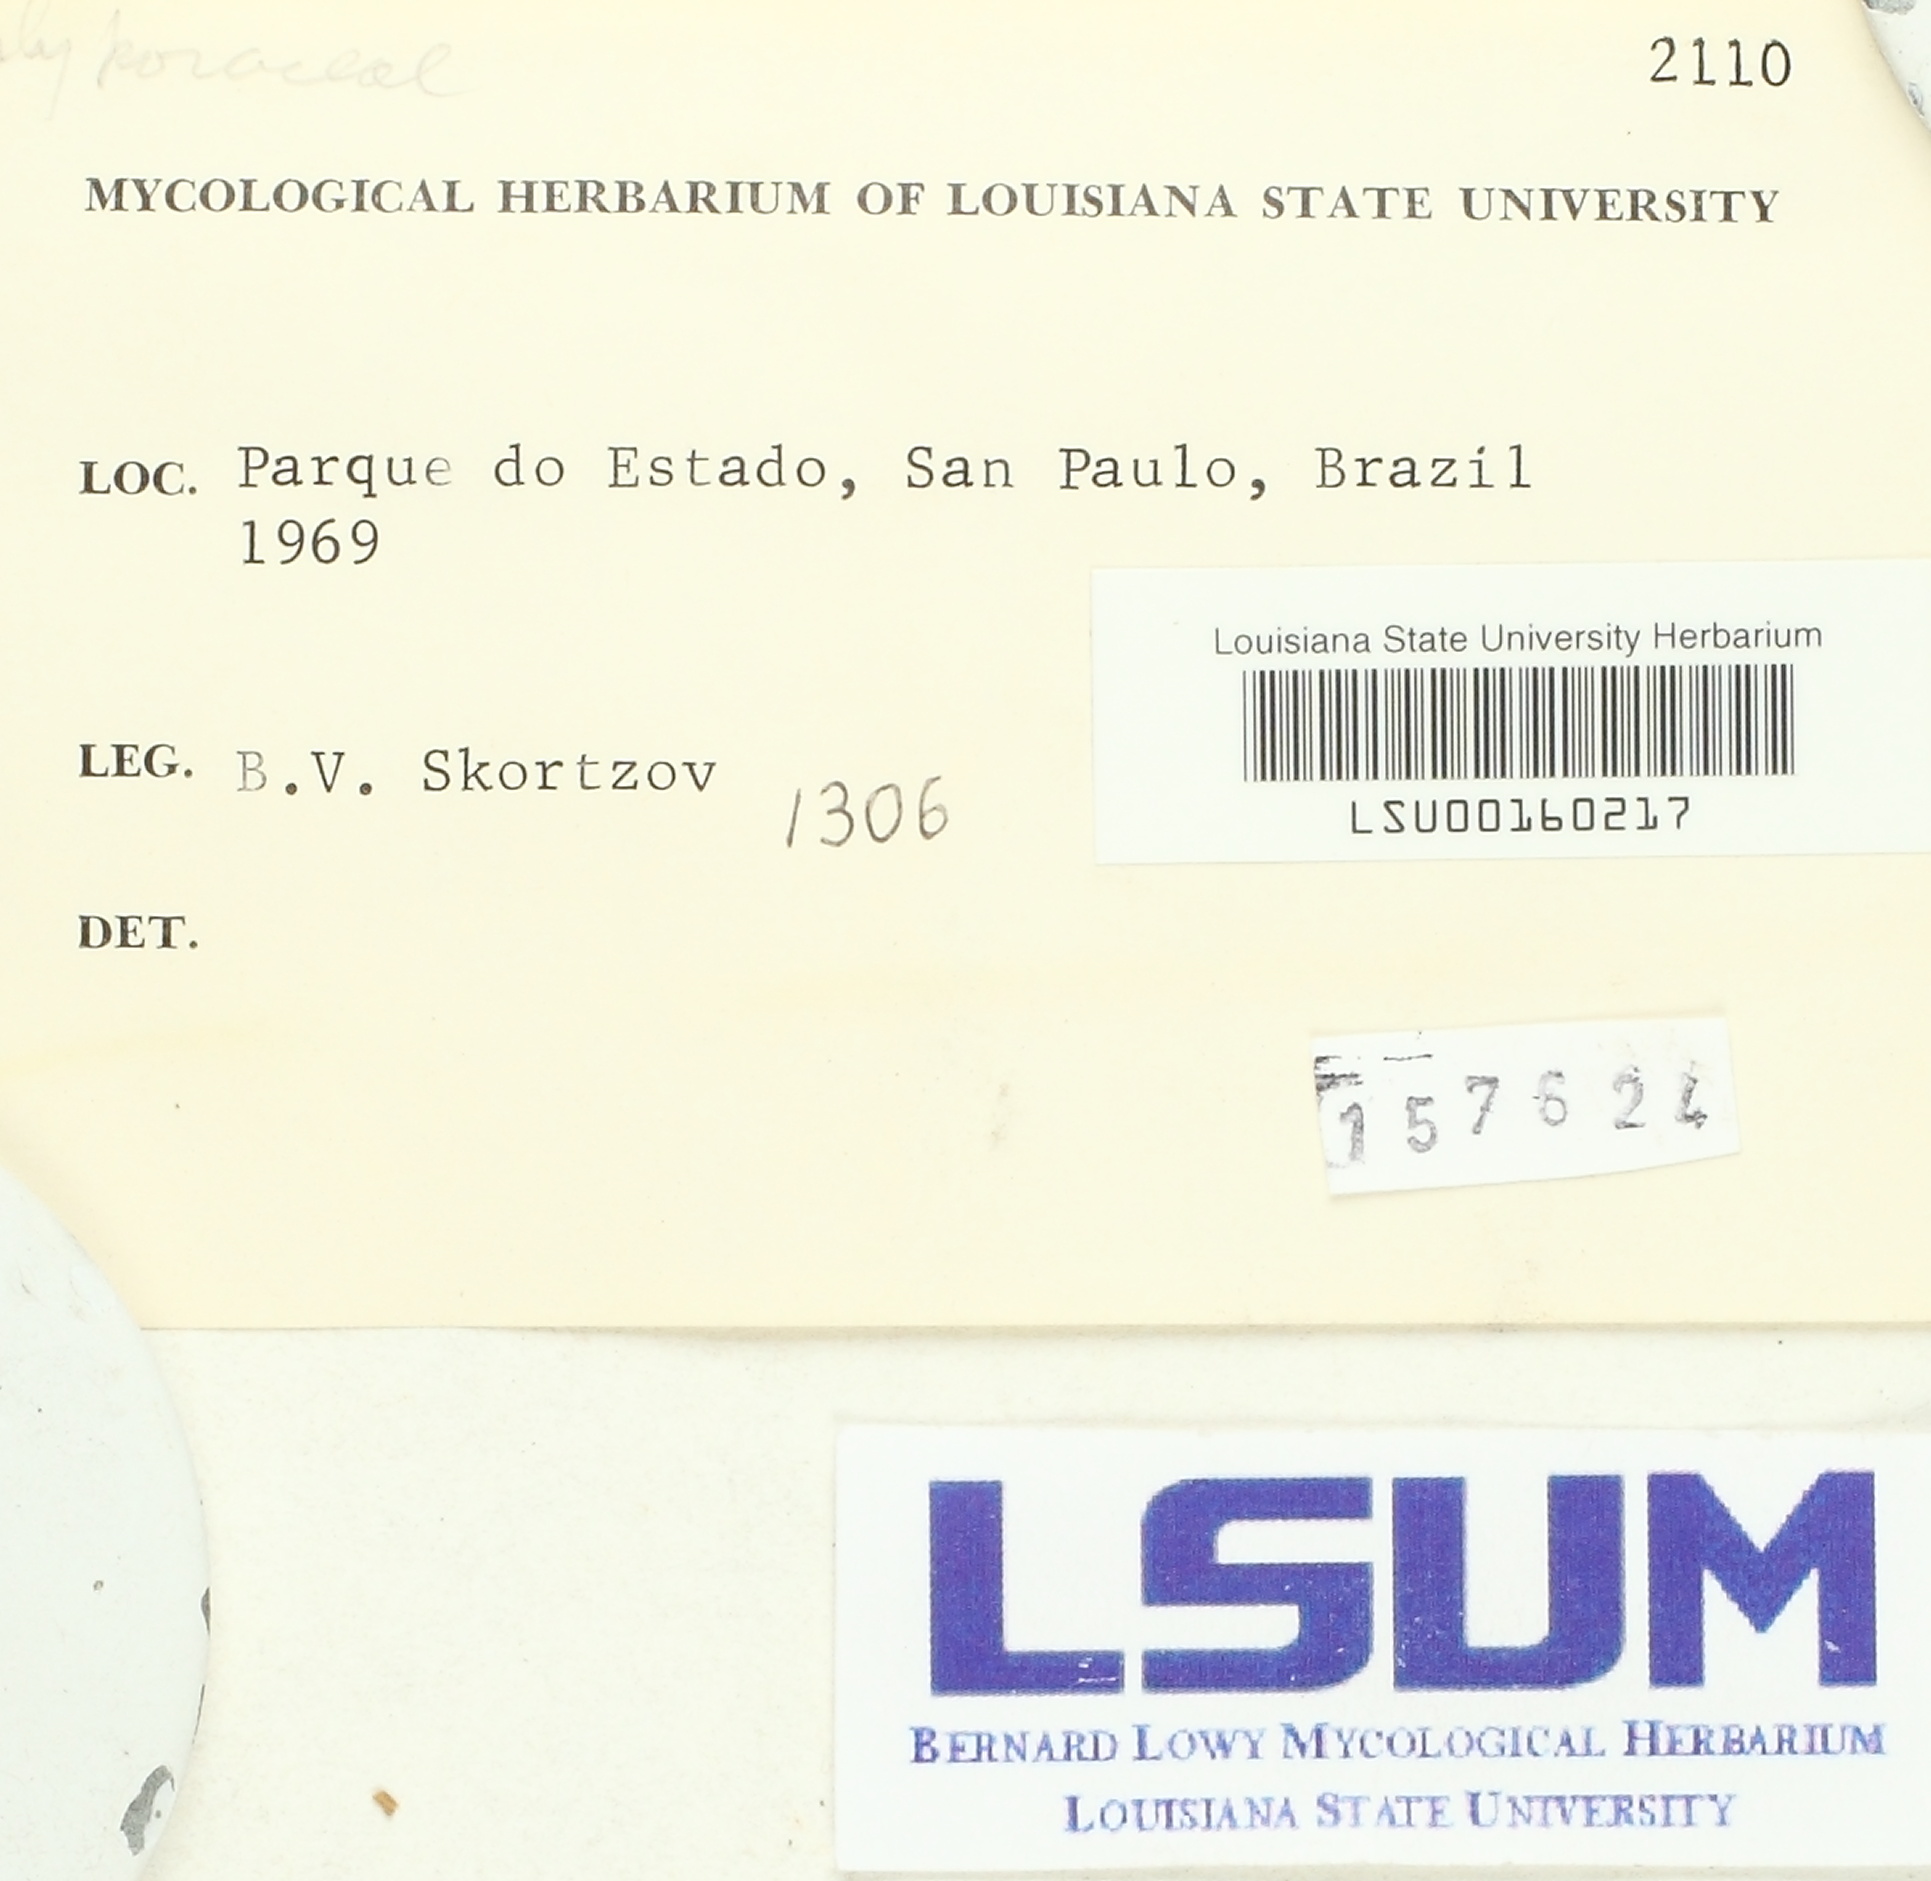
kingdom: Fungi
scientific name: Fungi
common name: Fungi
